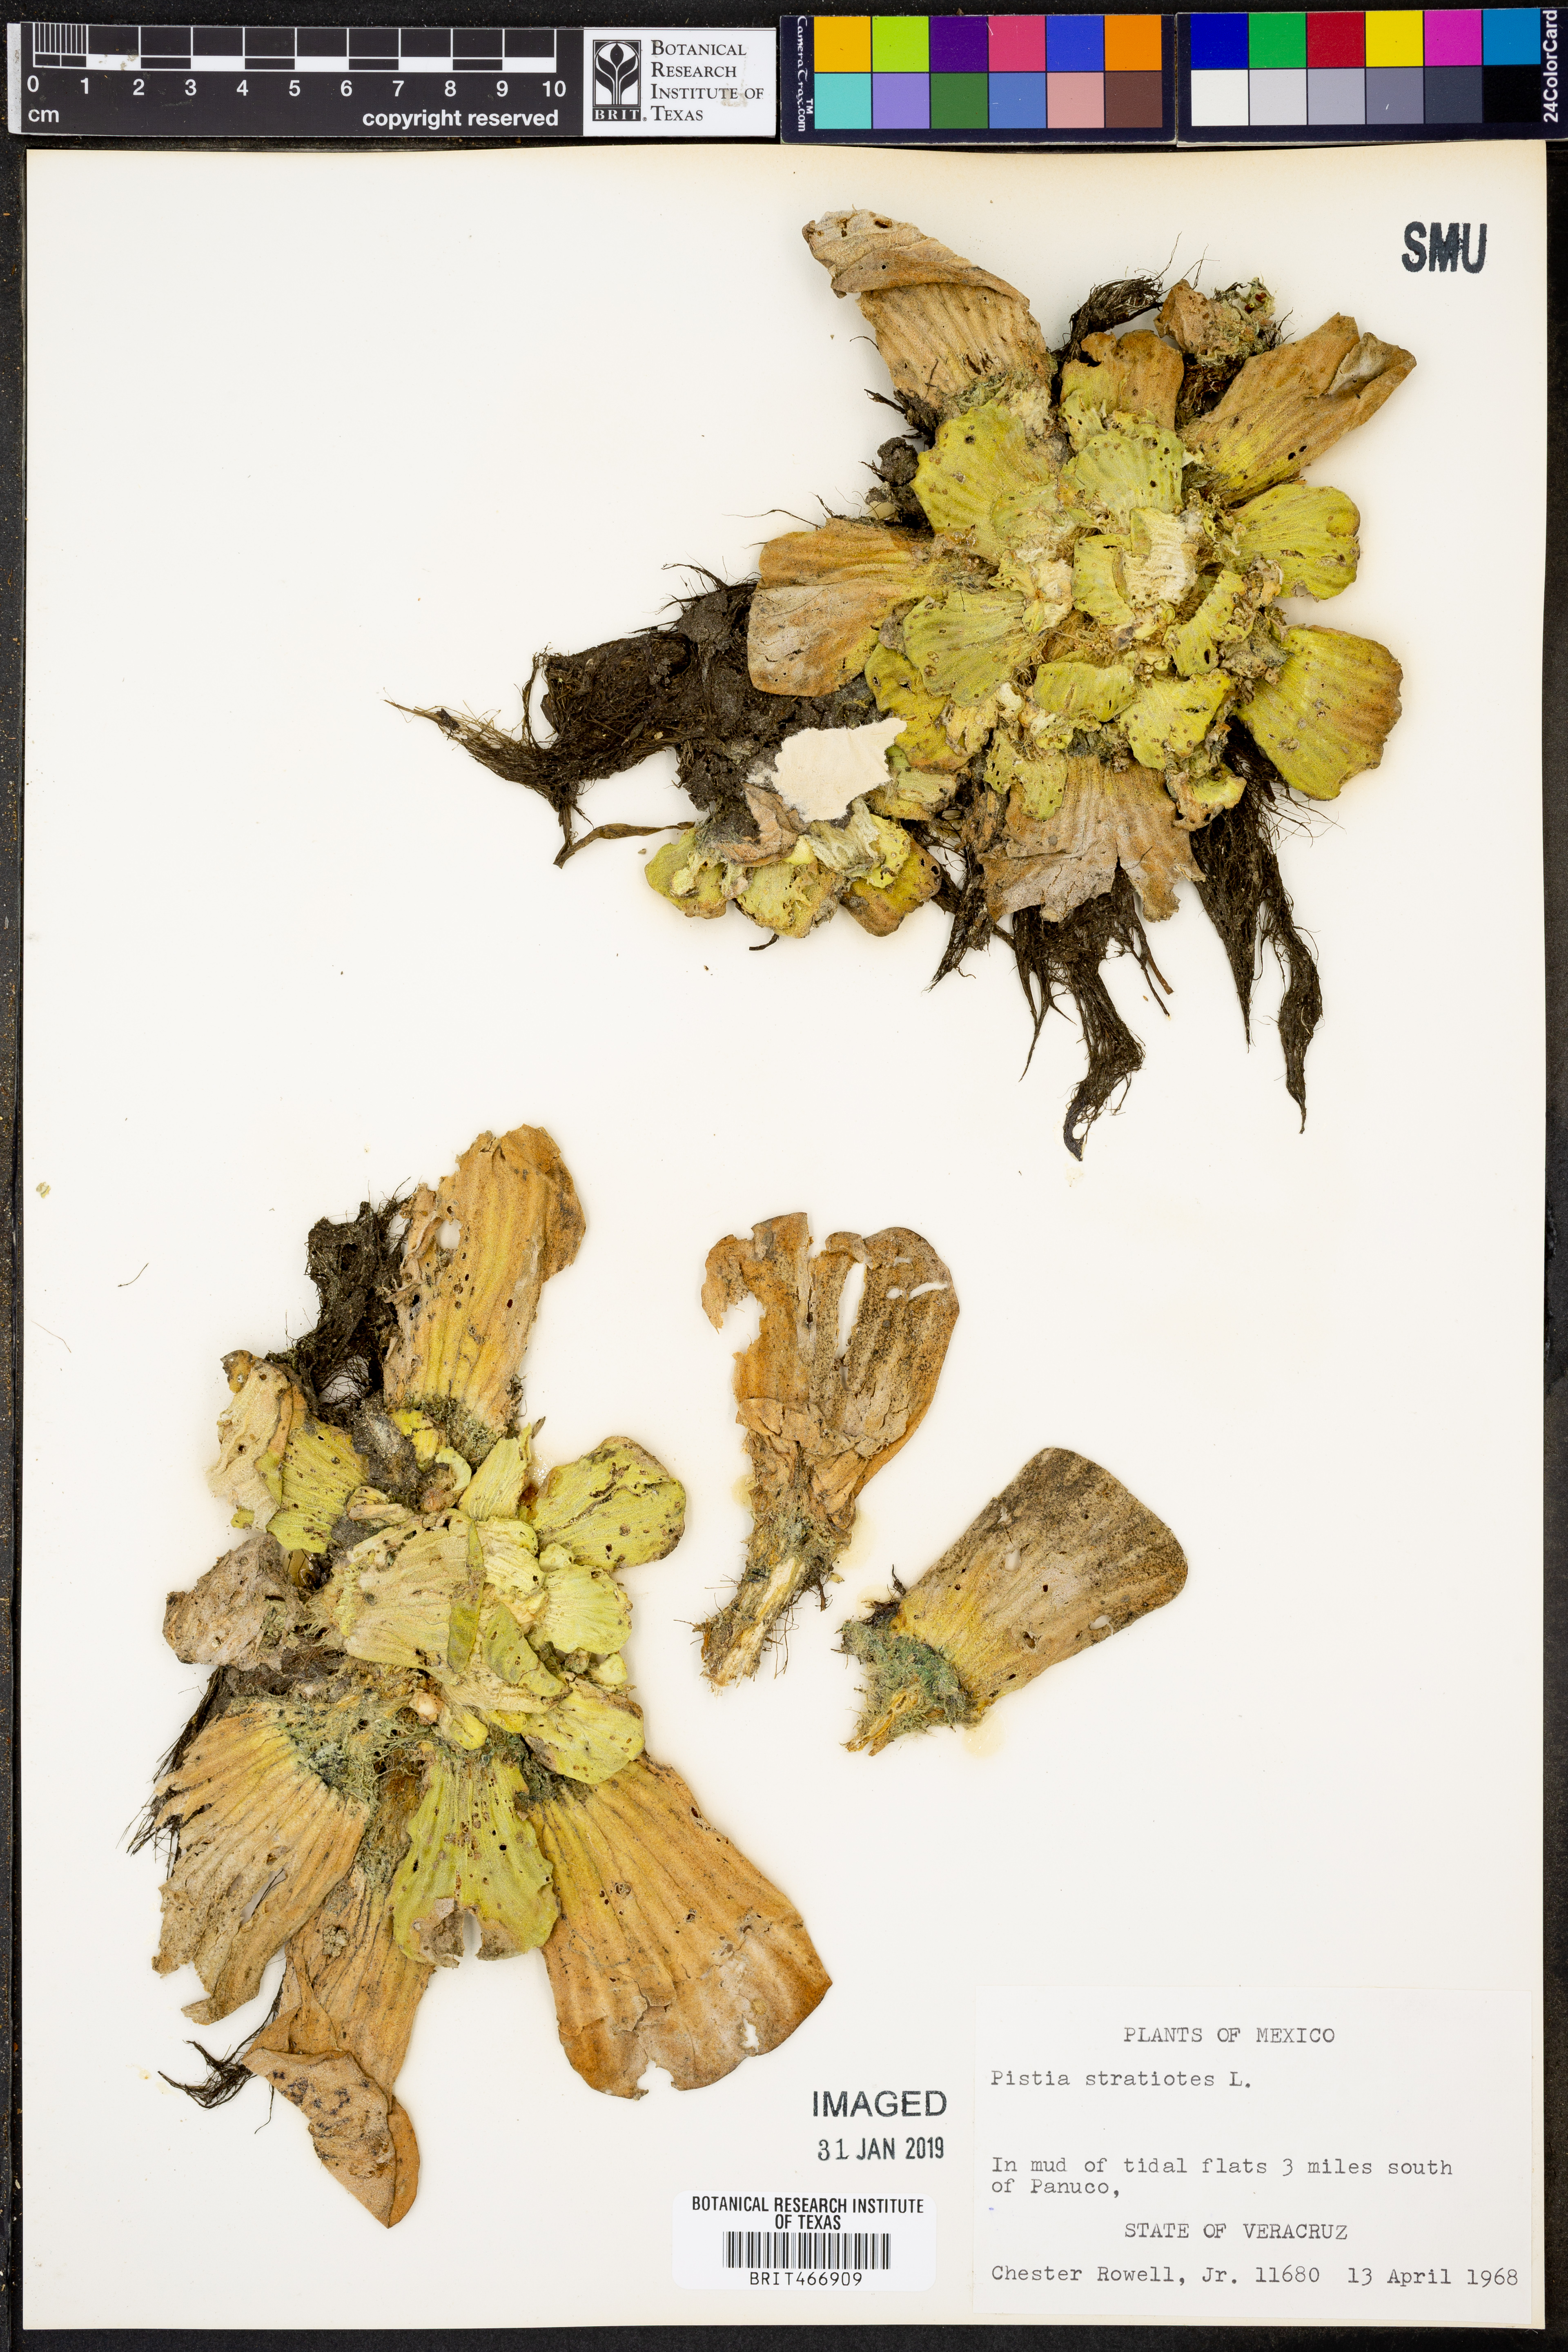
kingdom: Plantae
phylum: Tracheophyta
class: Liliopsida
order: Alismatales
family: Araceae
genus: Pistia
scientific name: Pistia stratiotes
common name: Water lettuce
